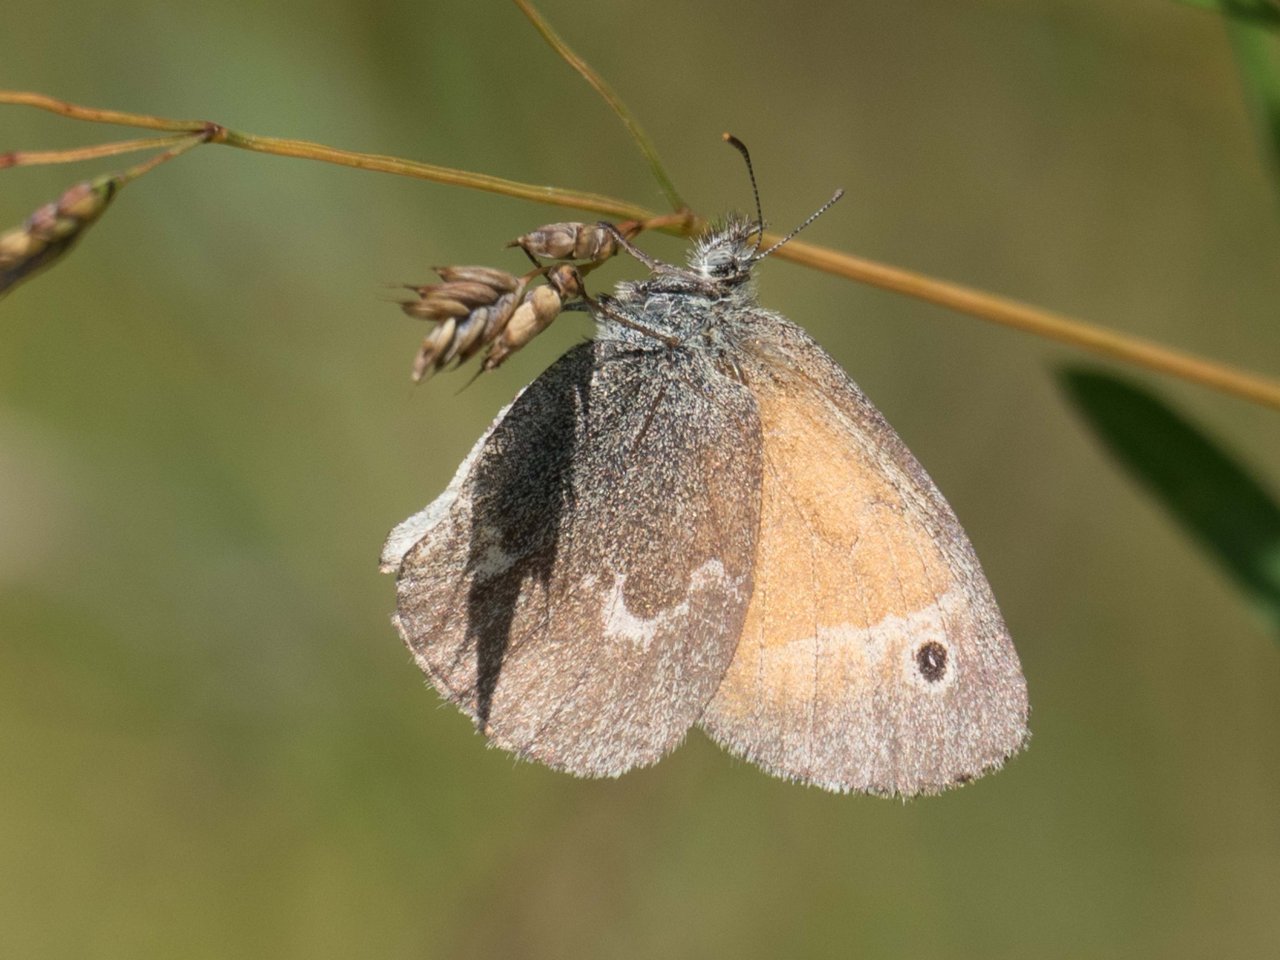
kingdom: Animalia
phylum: Arthropoda
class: Insecta
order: Lepidoptera
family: Nymphalidae
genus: Coenonympha
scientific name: Coenonympha tullia
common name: Large Heath
